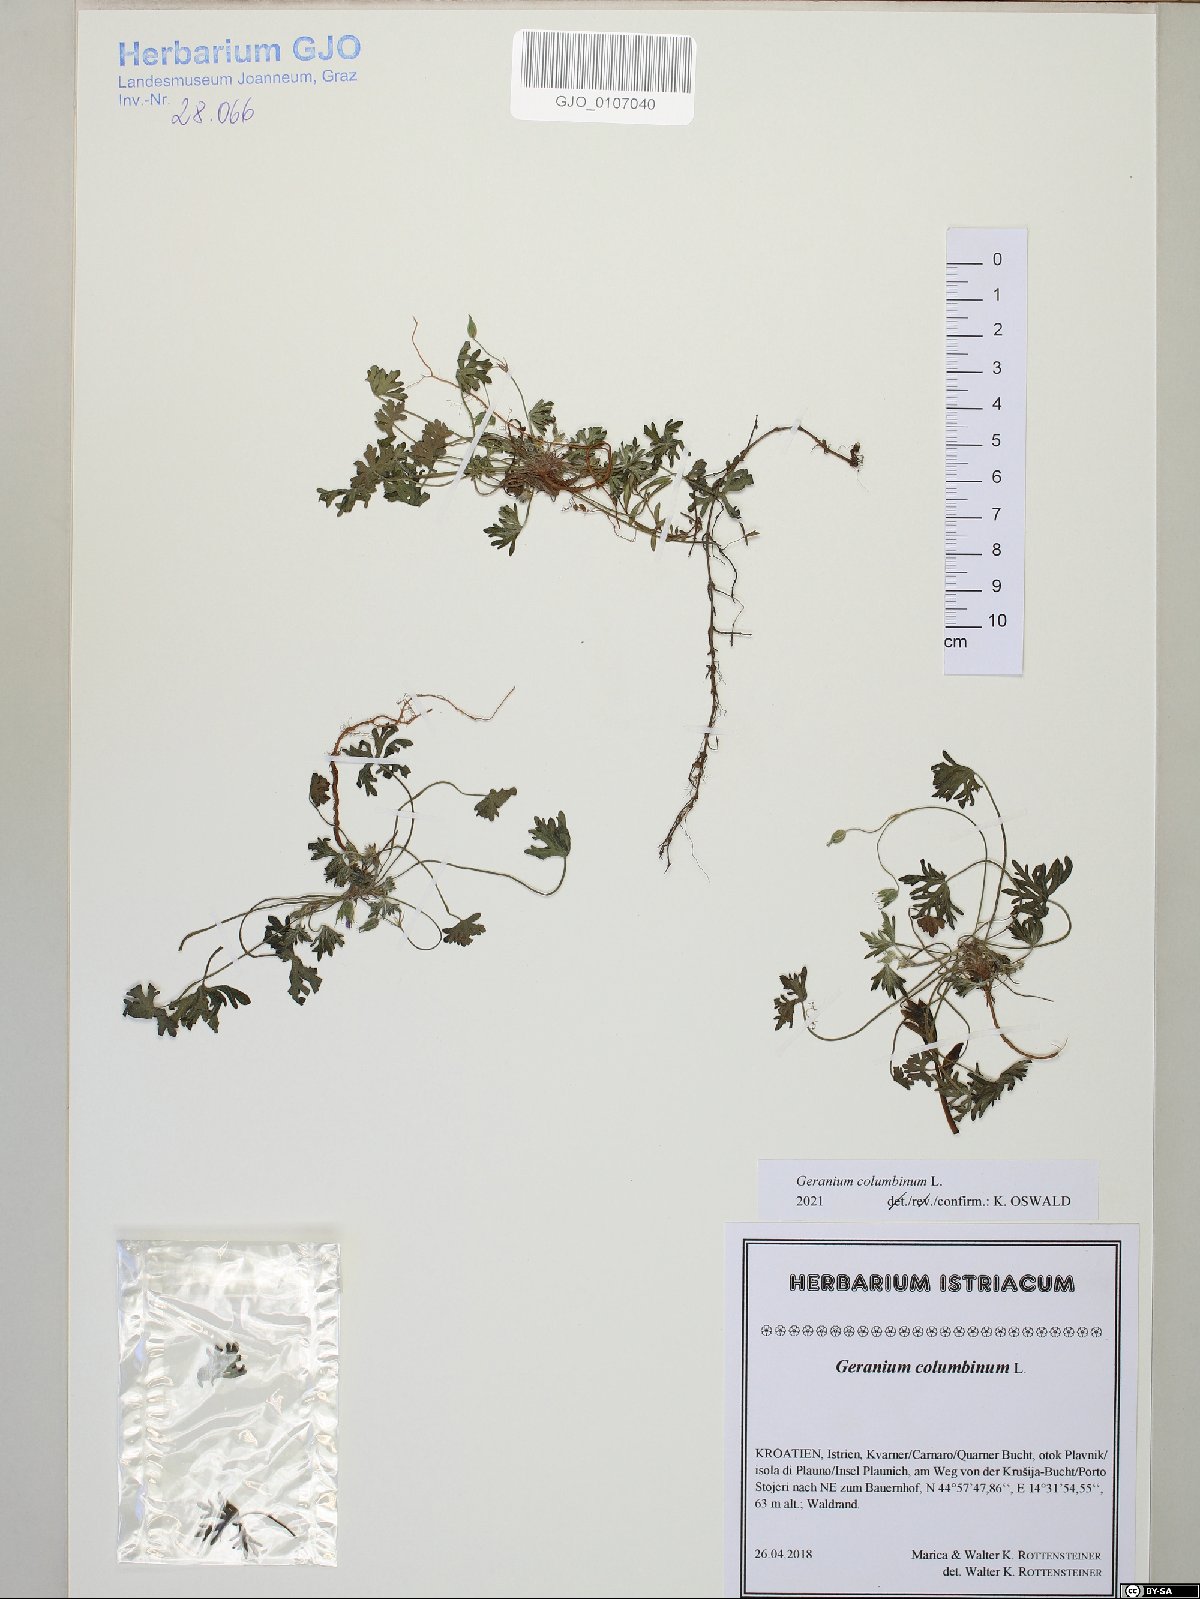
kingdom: Plantae
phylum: Tracheophyta
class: Magnoliopsida
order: Geraniales
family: Geraniaceae
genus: Geranium
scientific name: Geranium columbinum
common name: Long-stalked crane's-bill
